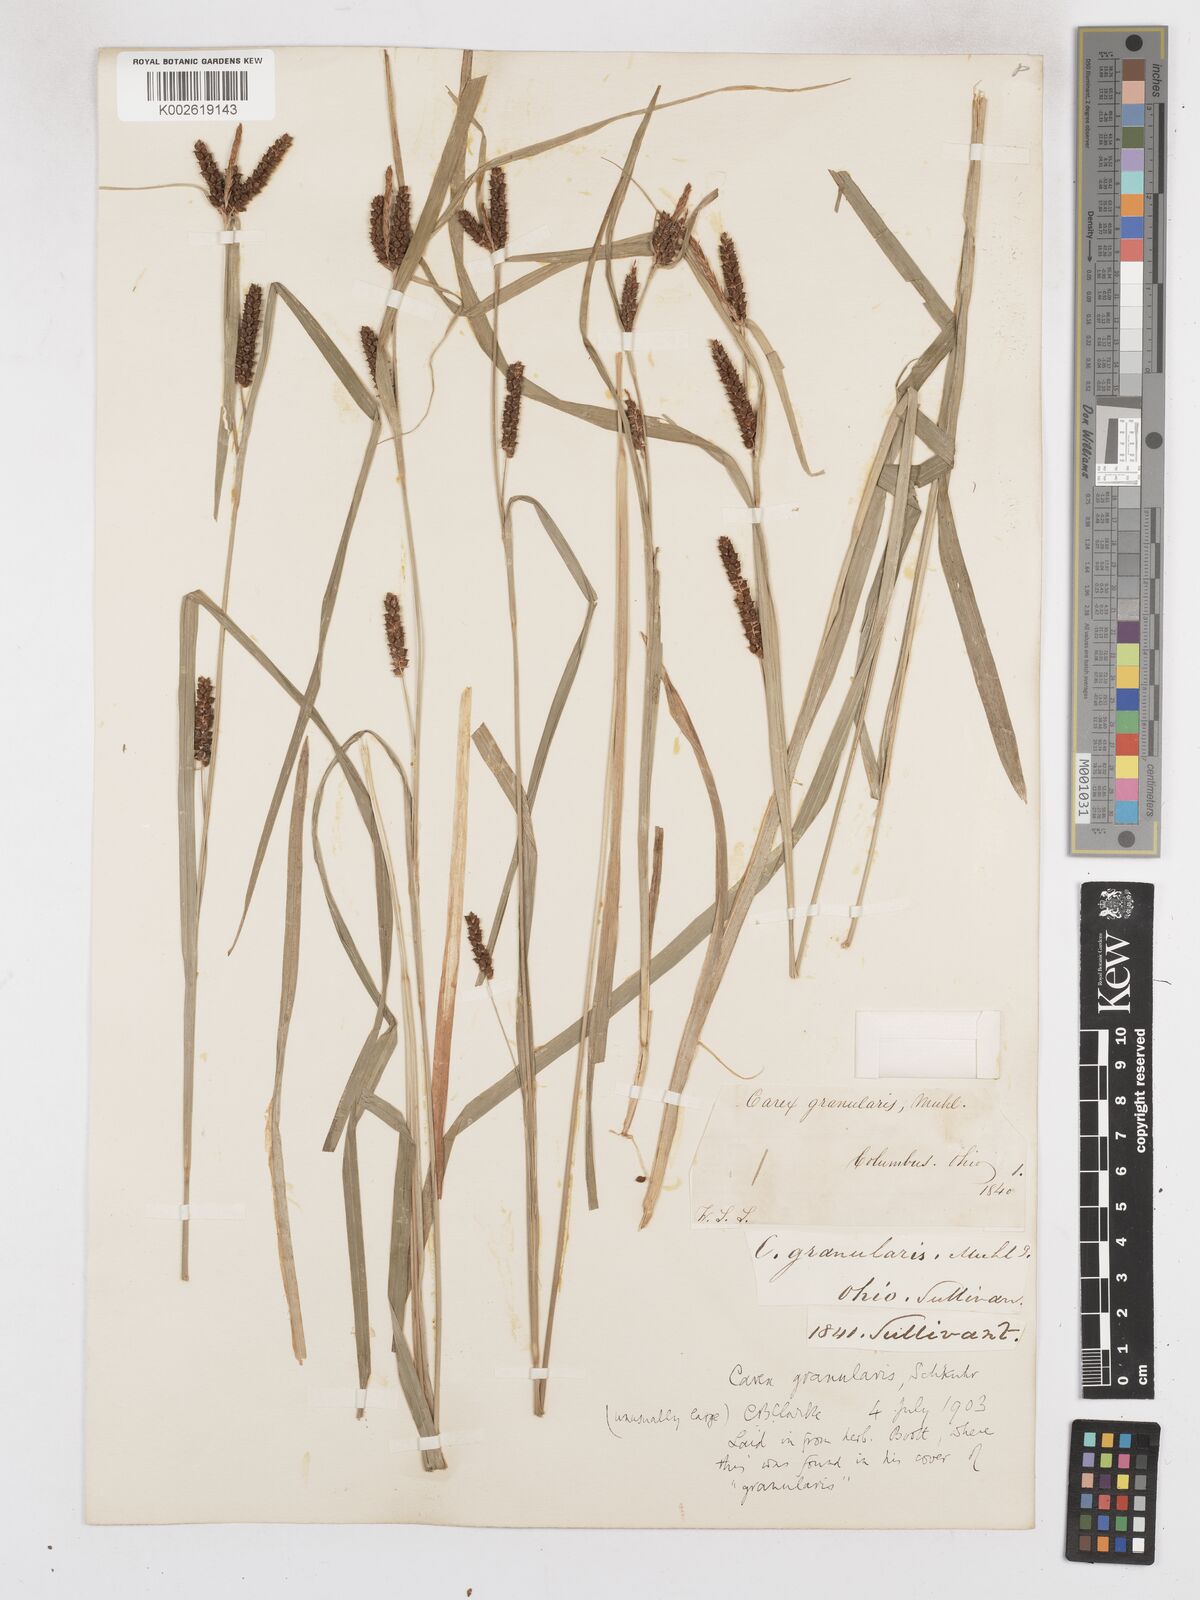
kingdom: Plantae
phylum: Tracheophyta
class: Liliopsida
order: Poales
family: Cyperaceae
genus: Carex
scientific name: Carex granularis
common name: Granular sedge
